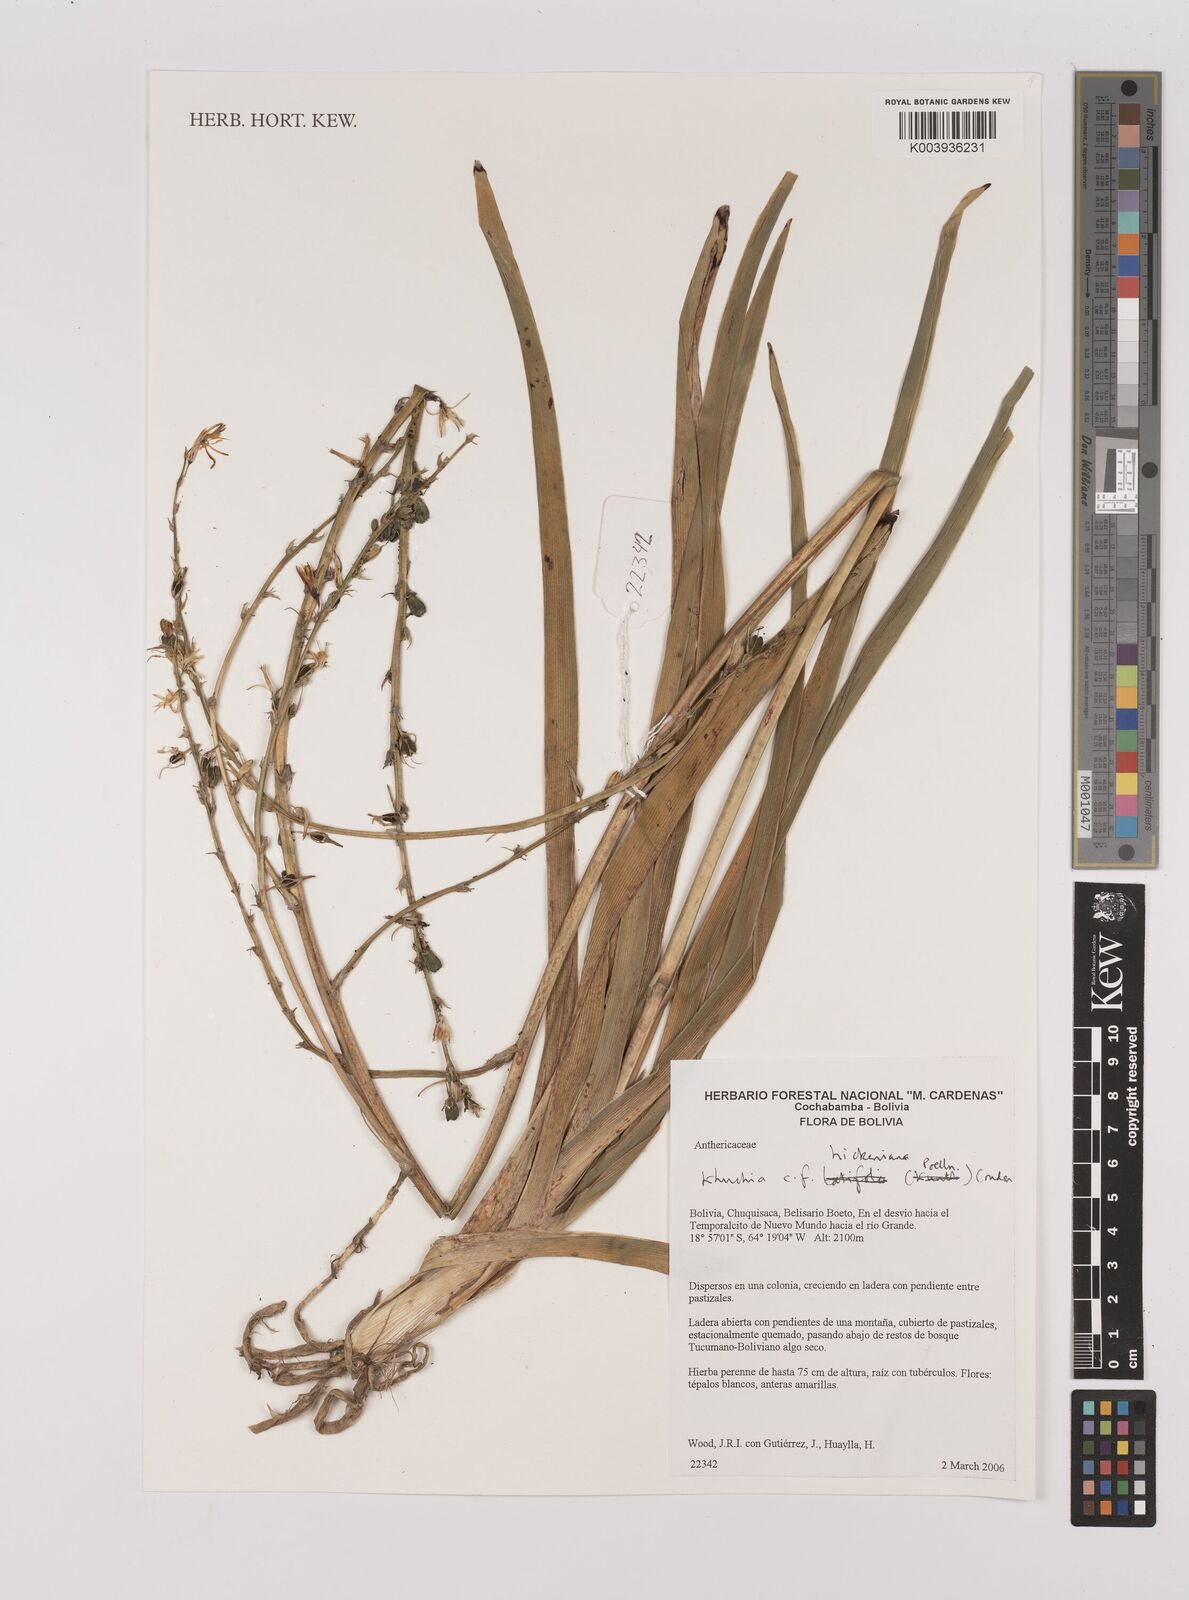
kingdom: Plantae
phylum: Tracheophyta
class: Liliopsida
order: Asparagales
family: Asparagaceae
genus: Echeandia
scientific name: Echeandia
